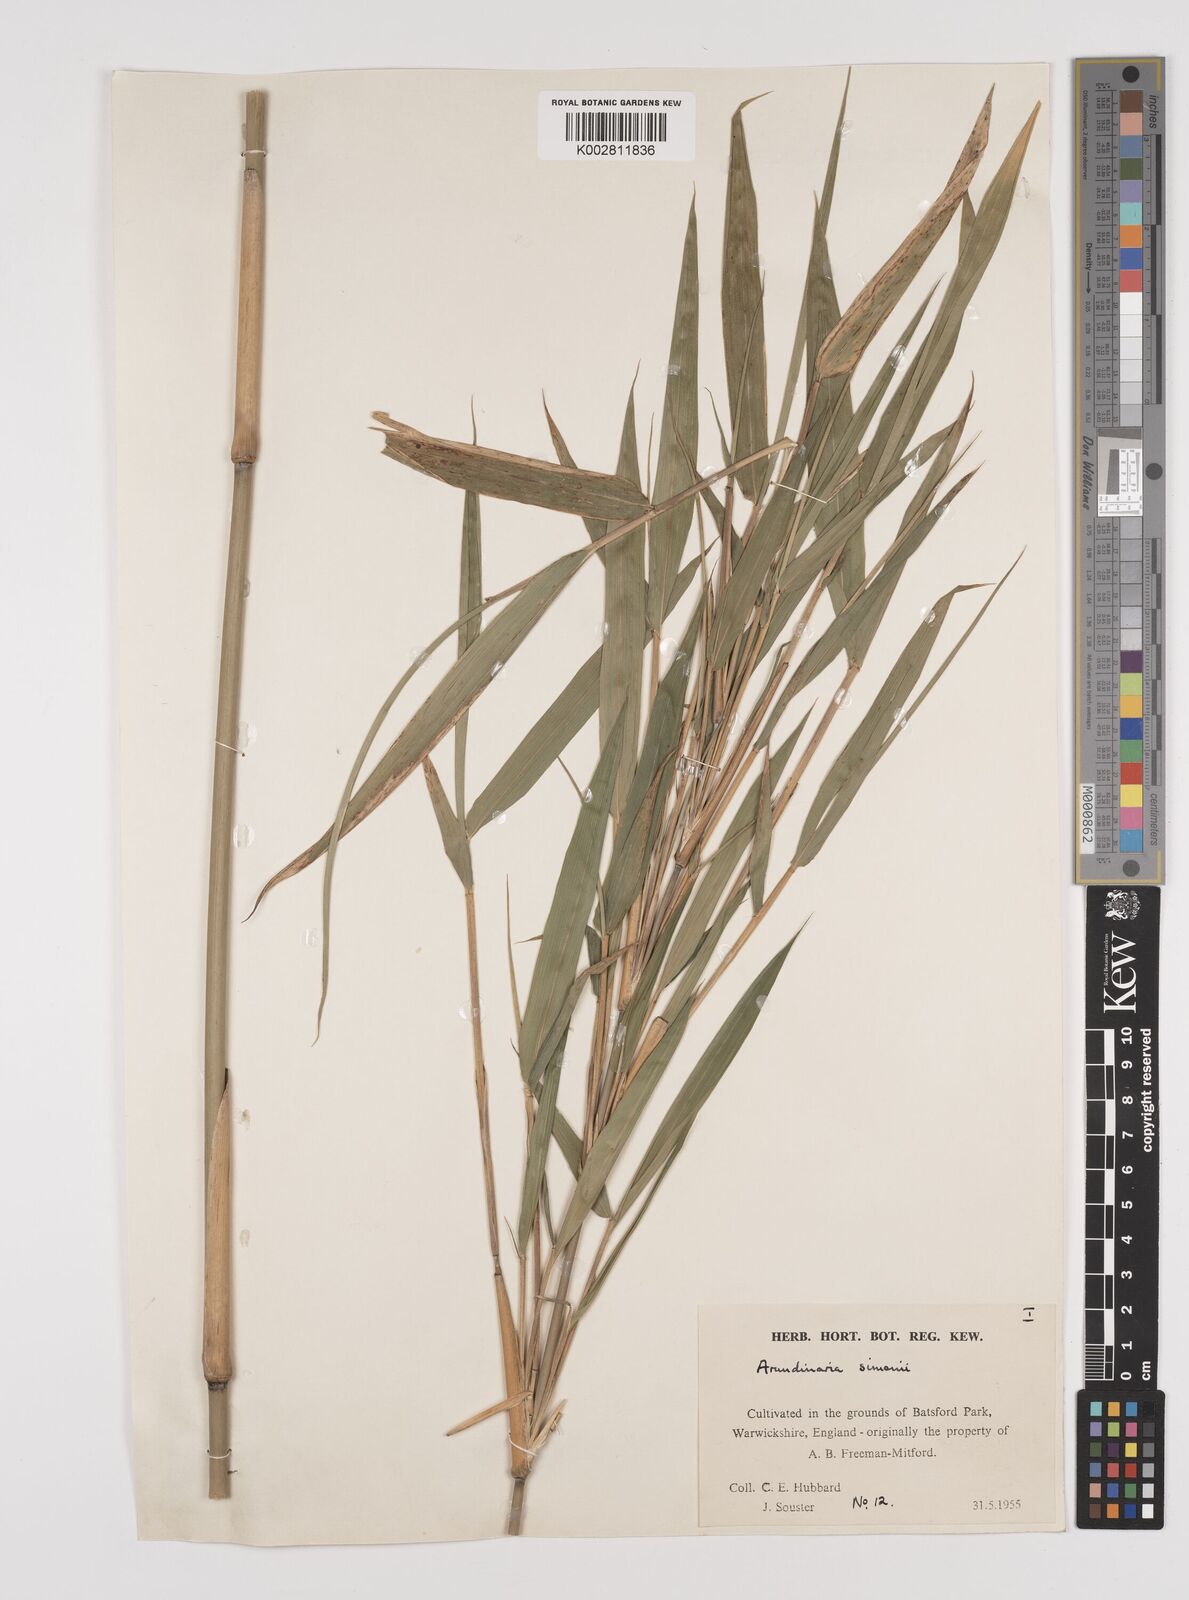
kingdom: Plantae
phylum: Tracheophyta
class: Liliopsida
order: Poales
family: Poaceae
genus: Pleioblastus
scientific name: Pleioblastus simonii
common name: Simon bamboo
